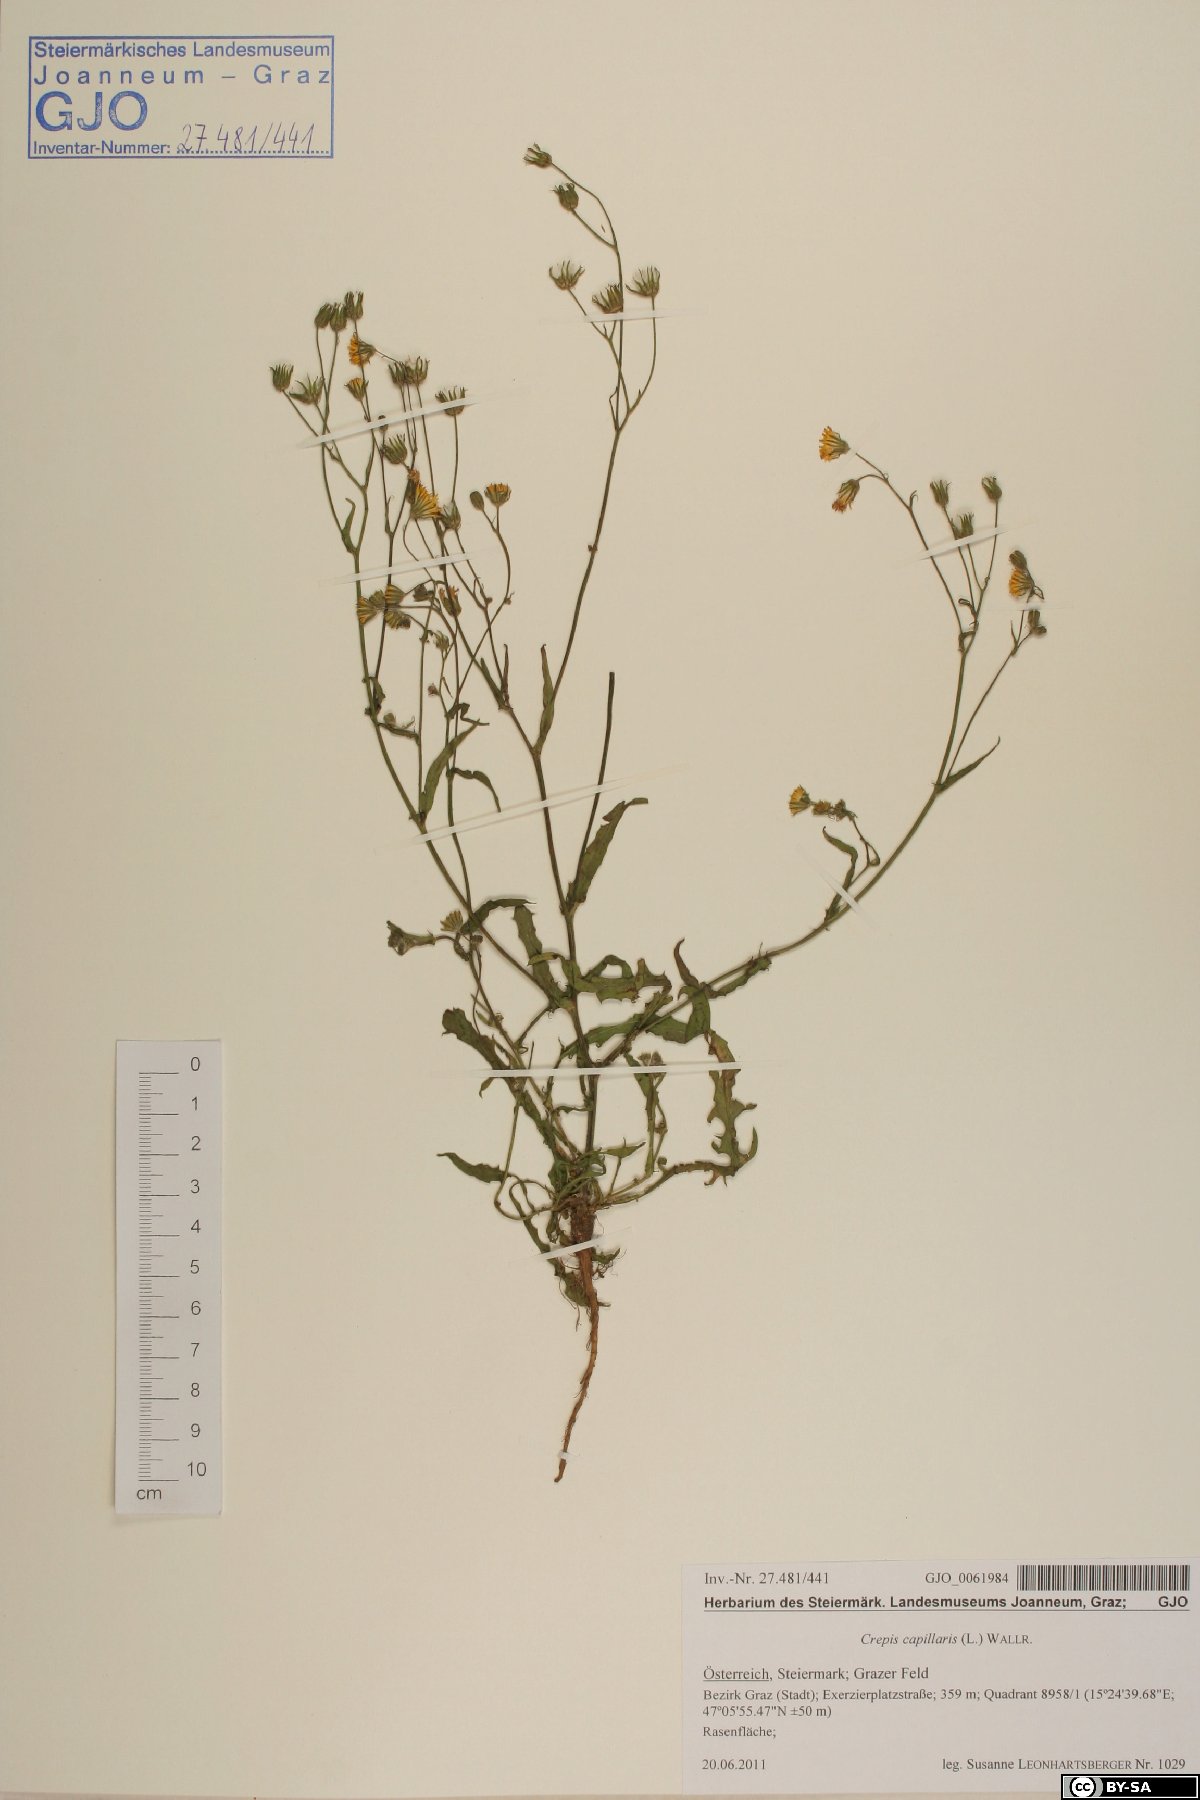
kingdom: Plantae
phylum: Tracheophyta
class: Magnoliopsida
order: Asterales
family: Asteraceae
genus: Crepis
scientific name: Crepis capillaris
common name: Smooth hawksbeard
